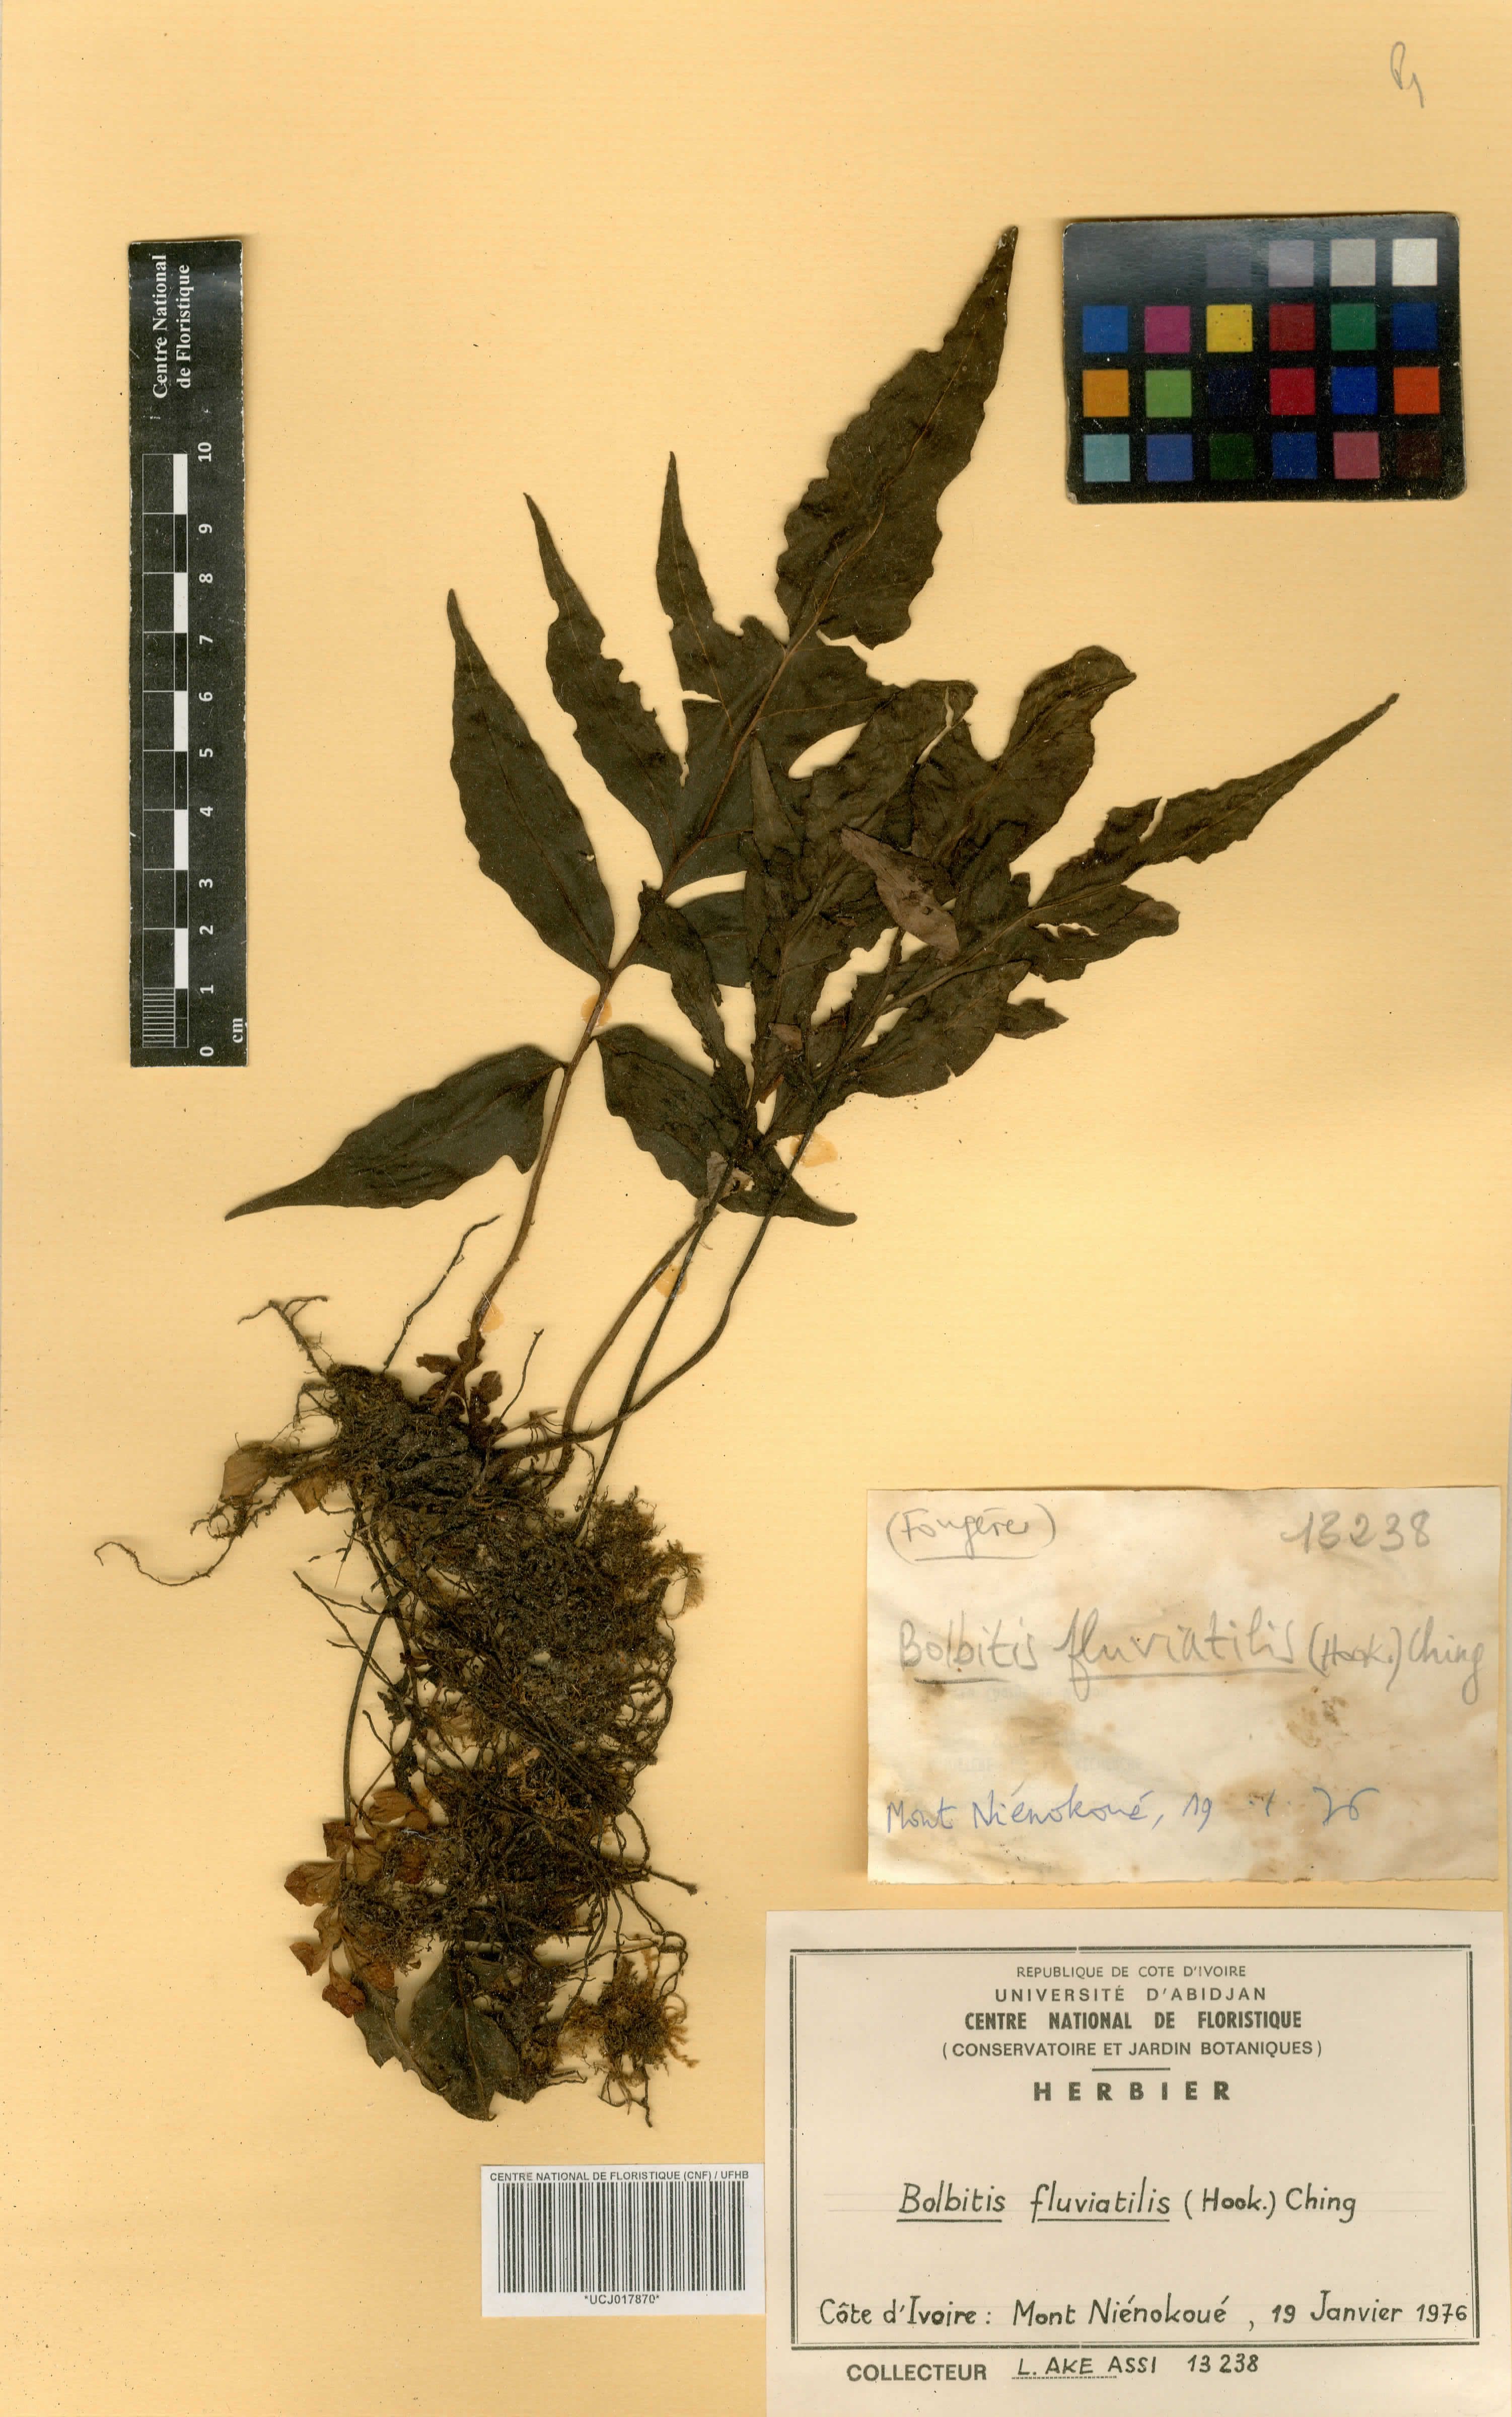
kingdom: Plantae
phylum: Tracheophyta
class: Polypodiopsida
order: Polypodiales
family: Dryopteridaceae
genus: Bolbitis
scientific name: Bolbitis fluviatilis
